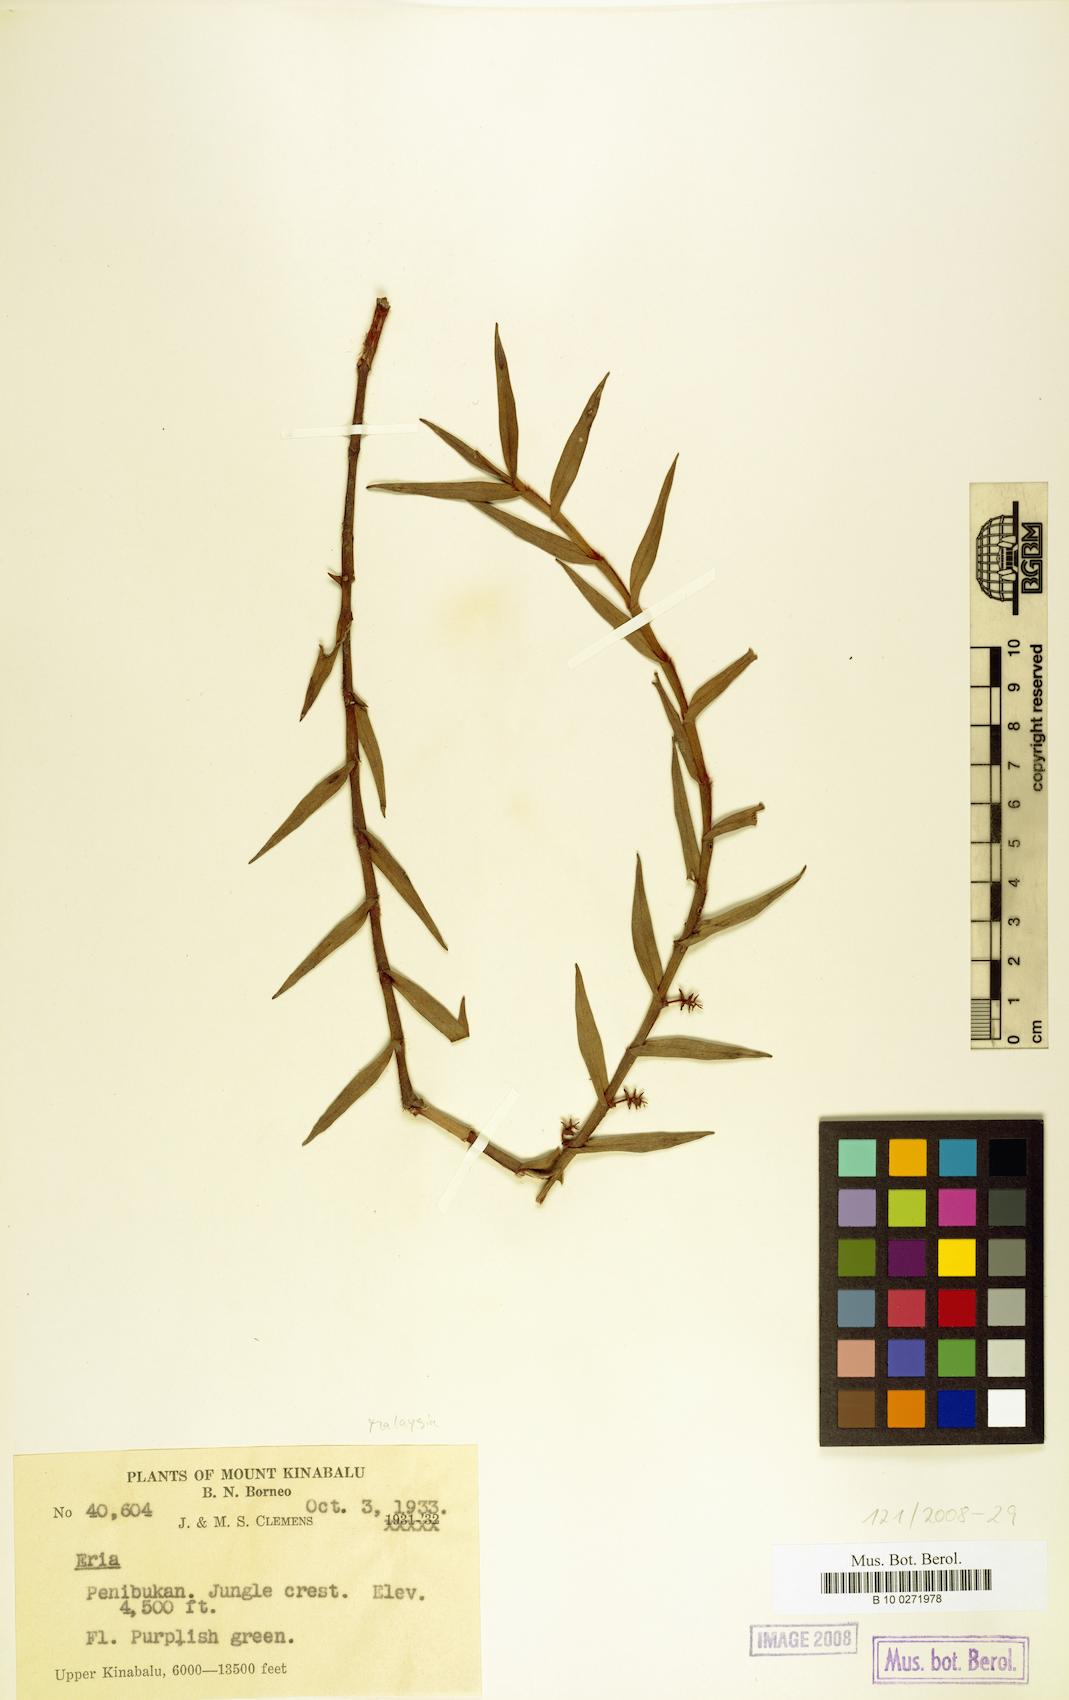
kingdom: Plantae
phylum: Tracheophyta
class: Liliopsida
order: Asparagales
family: Orchidaceae
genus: Eria
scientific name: Eria
